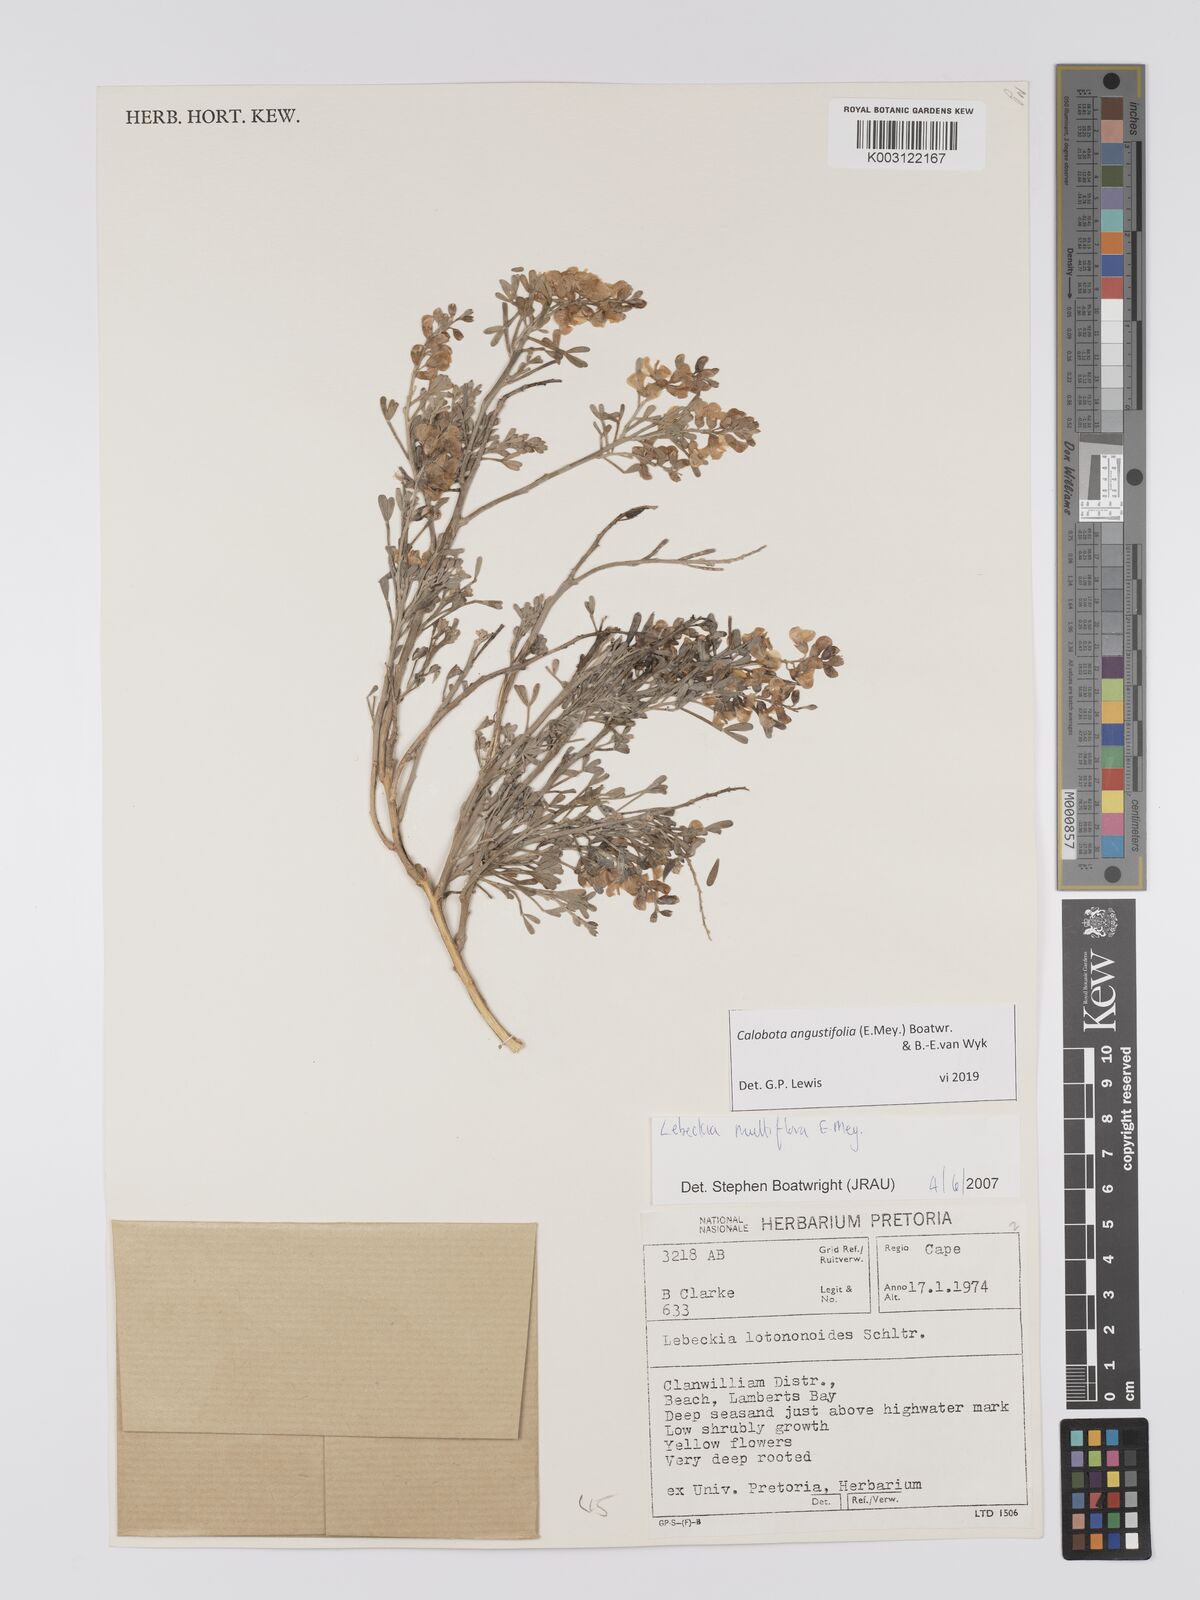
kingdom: Plantae
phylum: Tracheophyta
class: Magnoliopsida
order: Fabales
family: Fabaceae
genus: Calobota
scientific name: Calobota angustifolia
